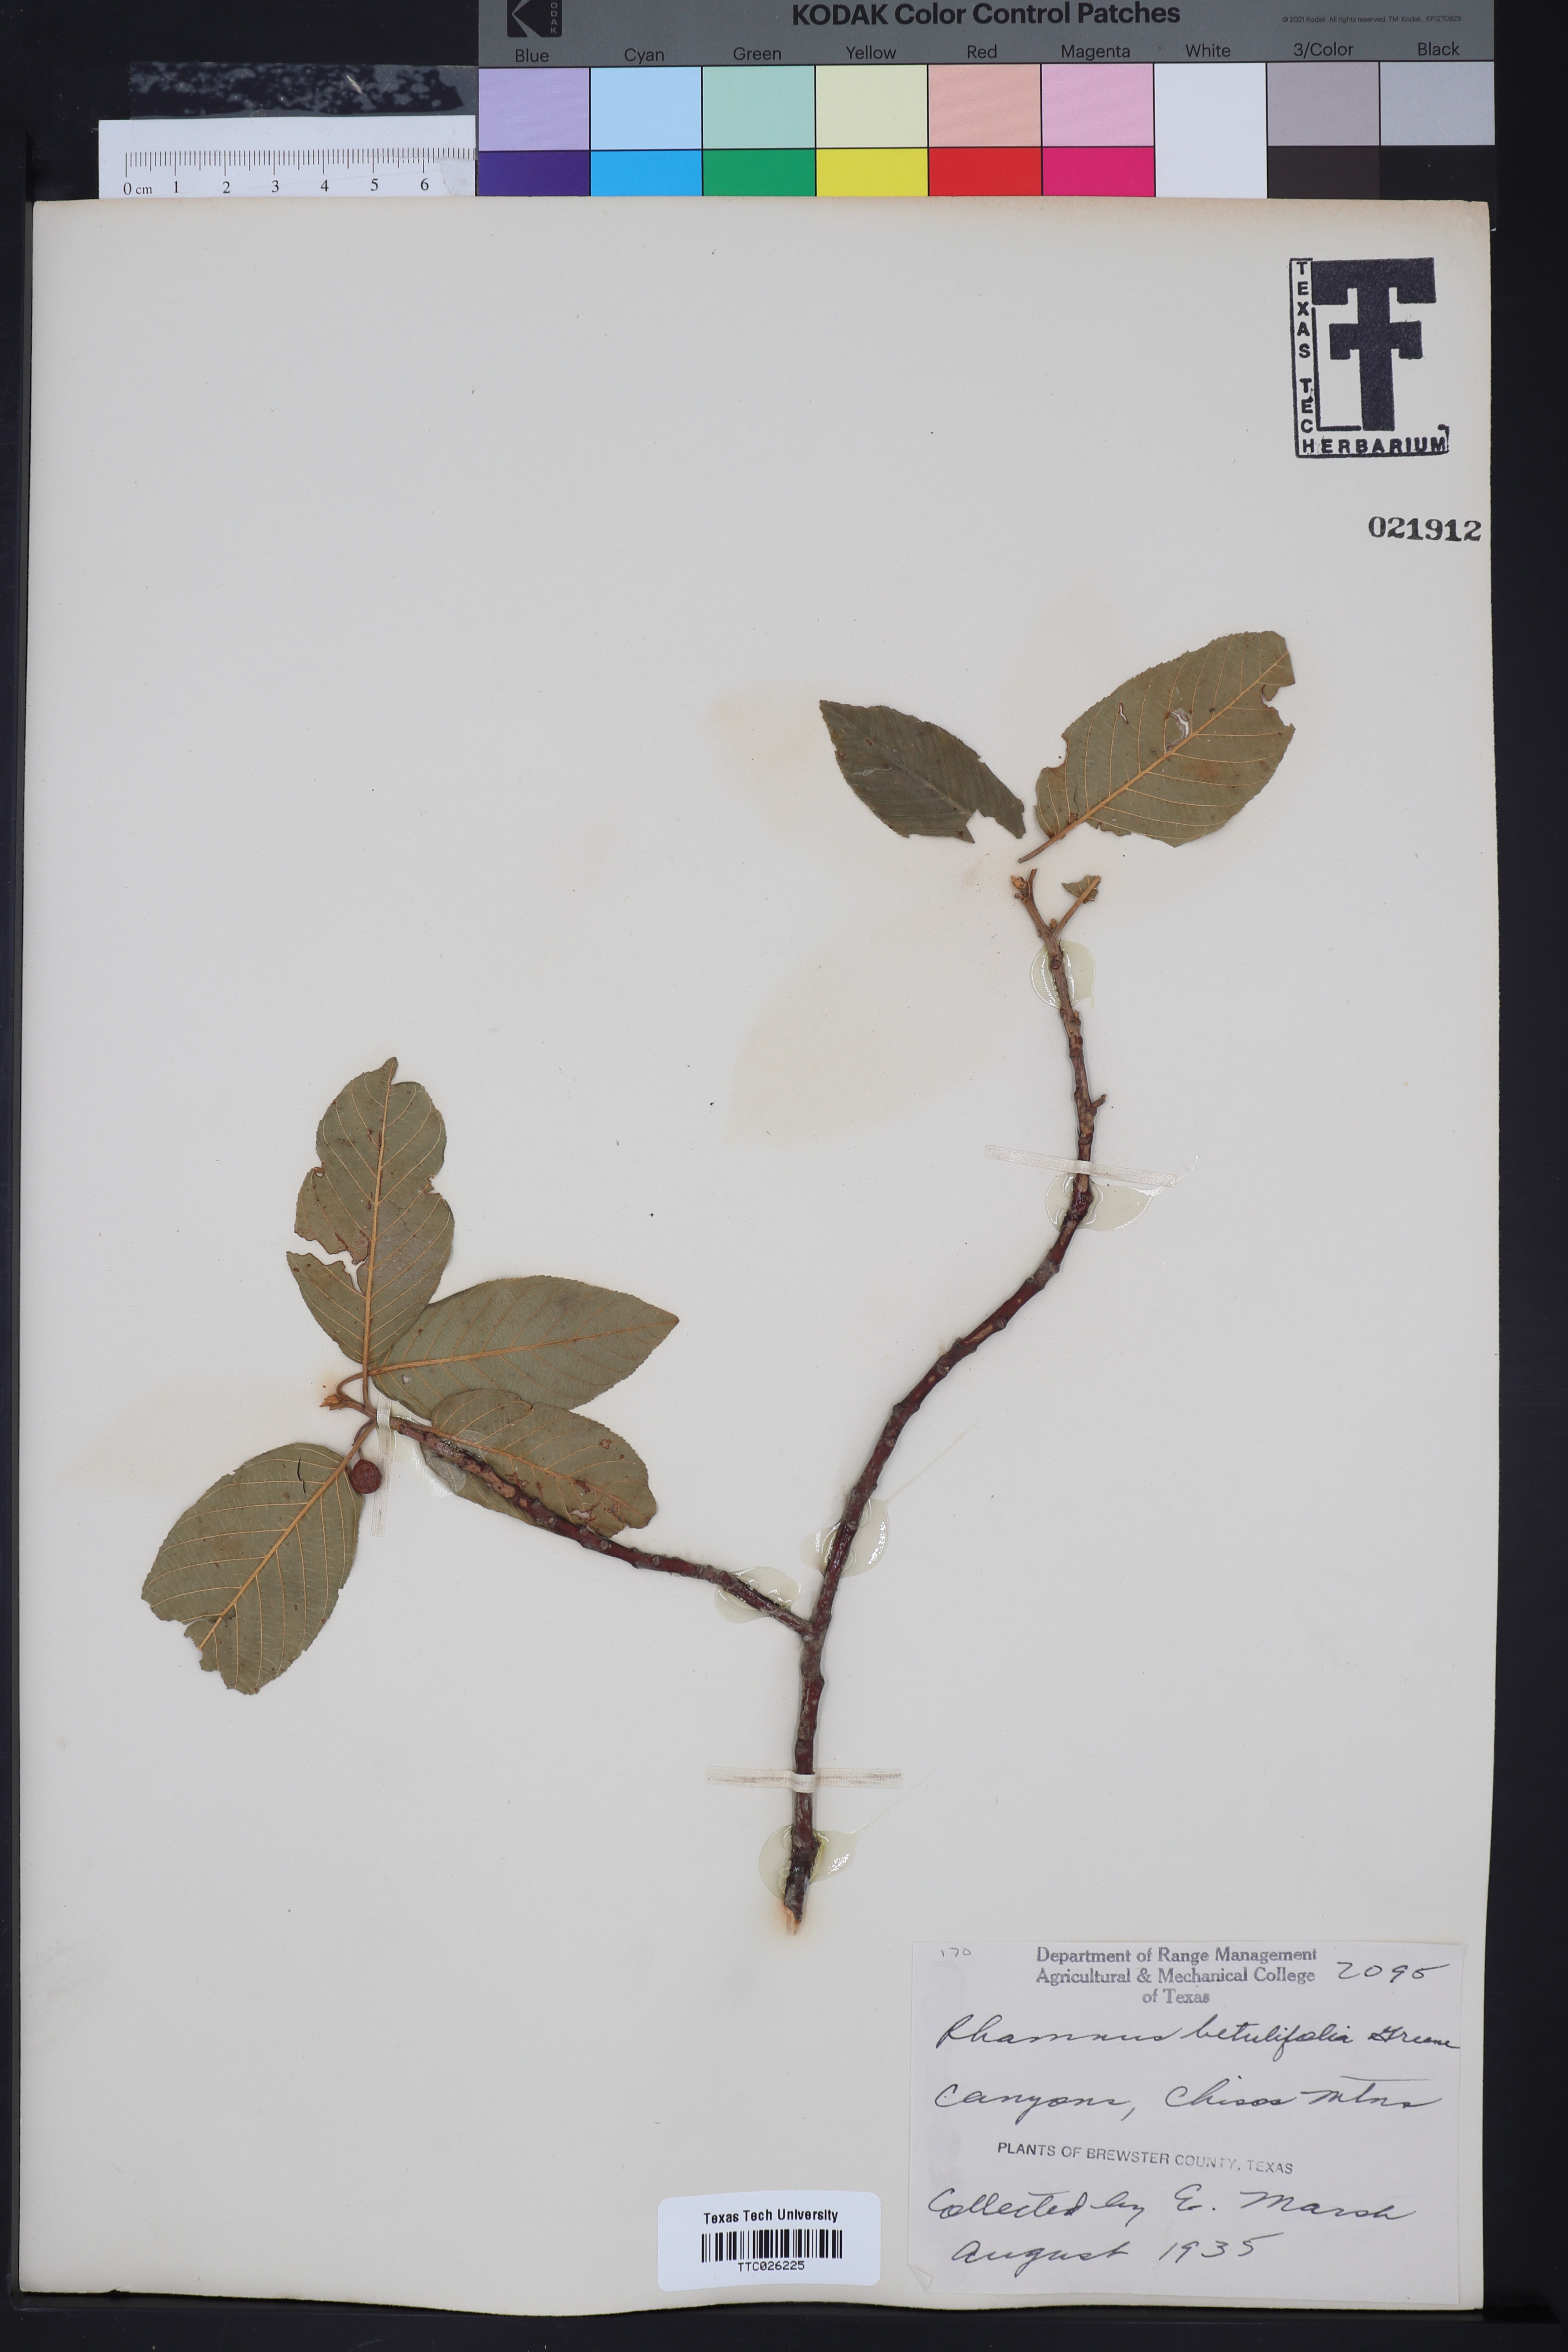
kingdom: Plantae
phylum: Tracheophyta
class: Magnoliopsida
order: Rosales
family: Rhamnaceae
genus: Frangula
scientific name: Frangula betulifolia
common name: Birch-leaf buckthorn
